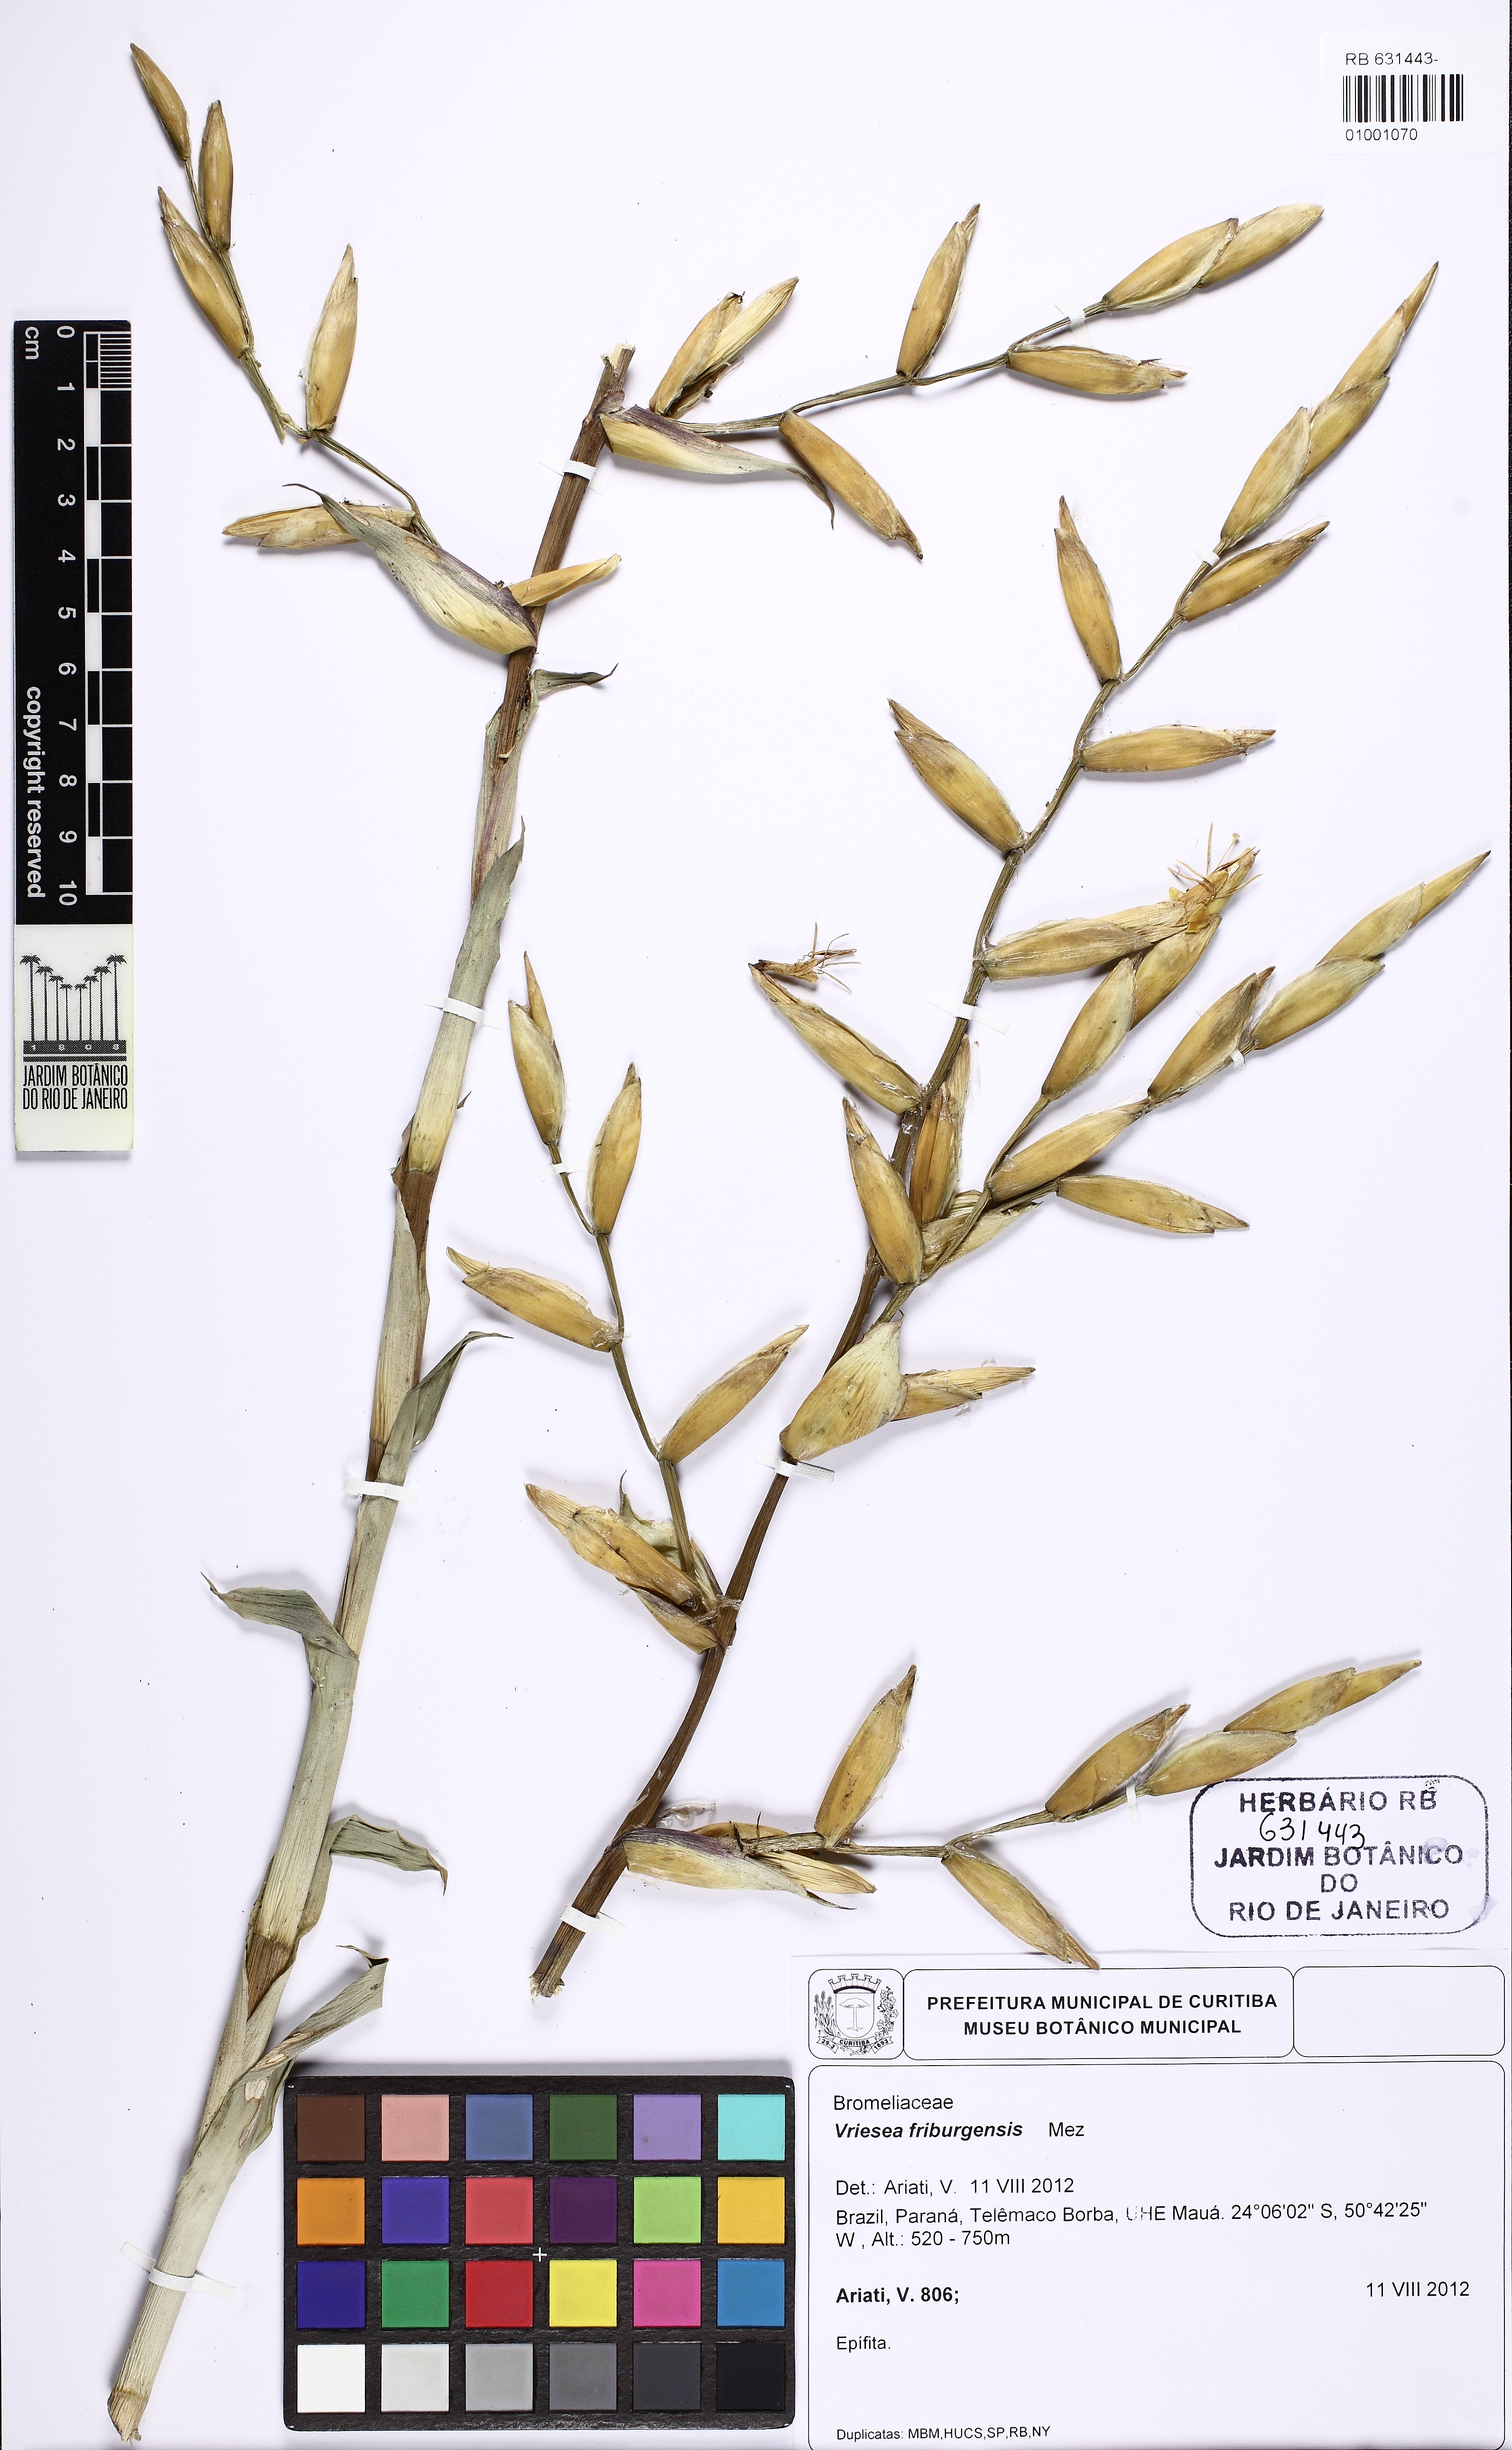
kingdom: Plantae
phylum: Tracheophyta
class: Liliopsida
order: Poales
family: Bromeliaceae
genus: Vriesea
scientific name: Vriesea friburgensis
